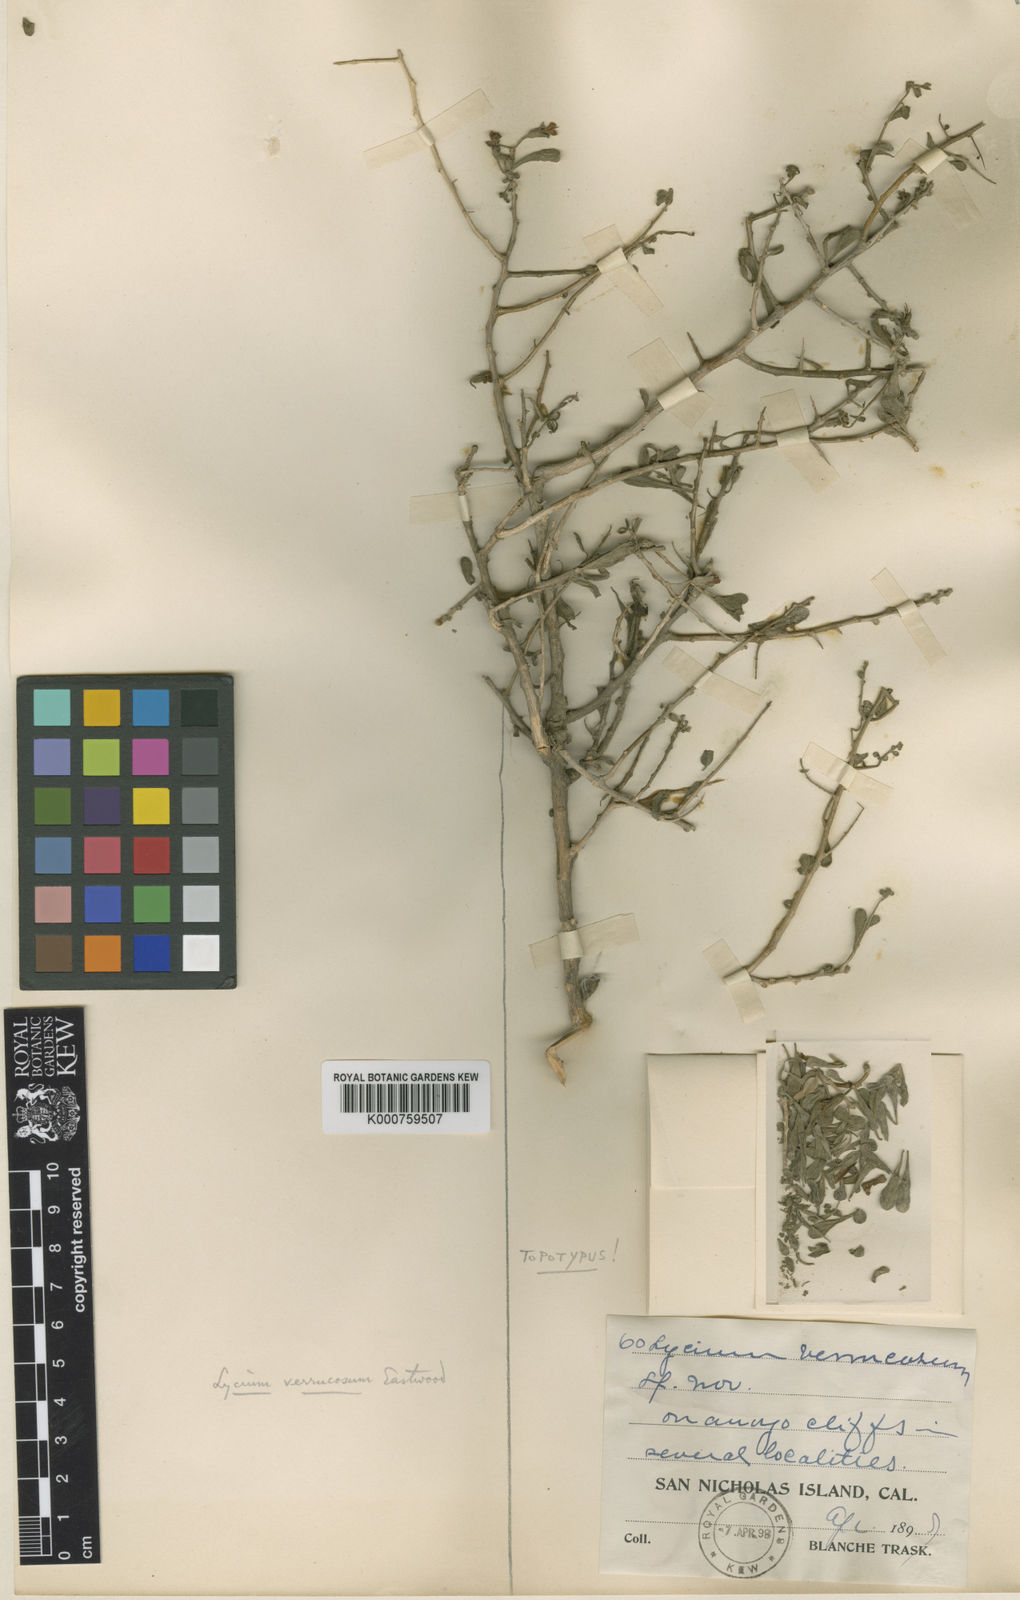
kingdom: Plantae
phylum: Tracheophyta
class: Magnoliopsida
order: Solanales
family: Solanaceae
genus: Lycium
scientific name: Lycium brevipes
